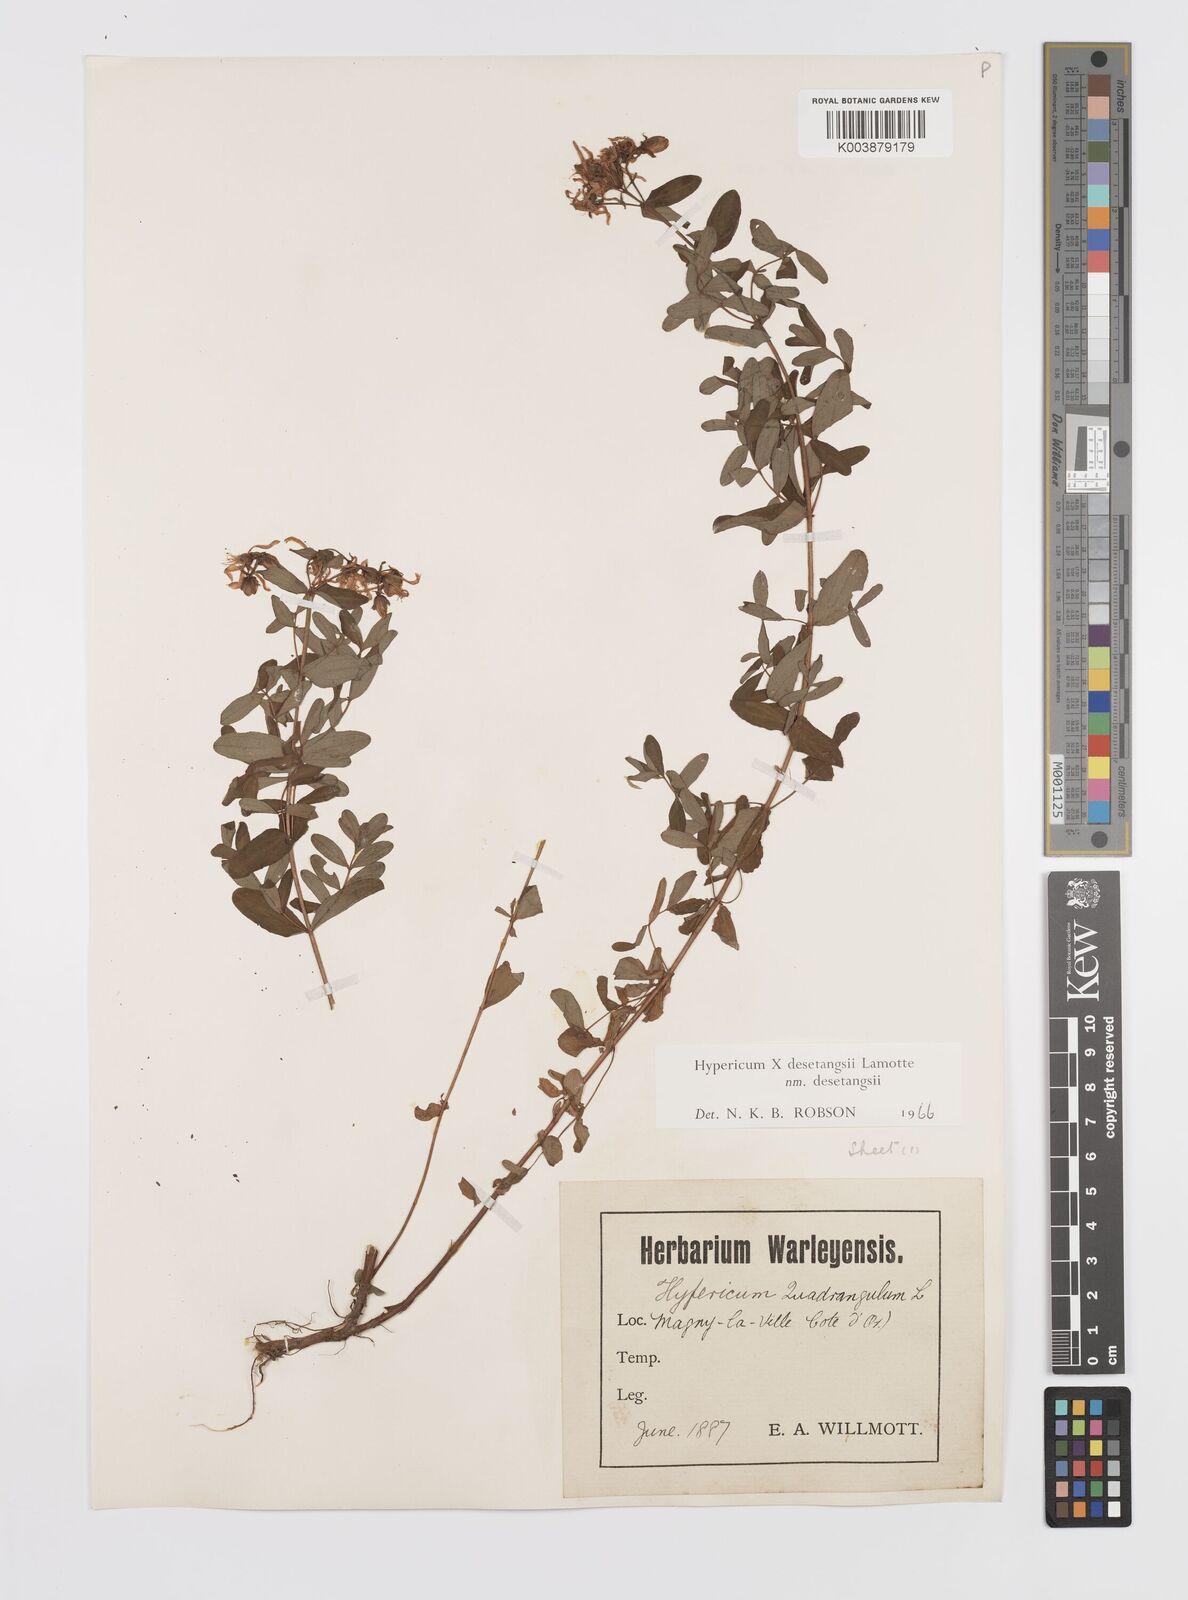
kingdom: Plantae
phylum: Tracheophyta
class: Magnoliopsida
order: Malpighiales
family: Hypericaceae
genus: Hypericum
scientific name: Hypericum desetangsii
